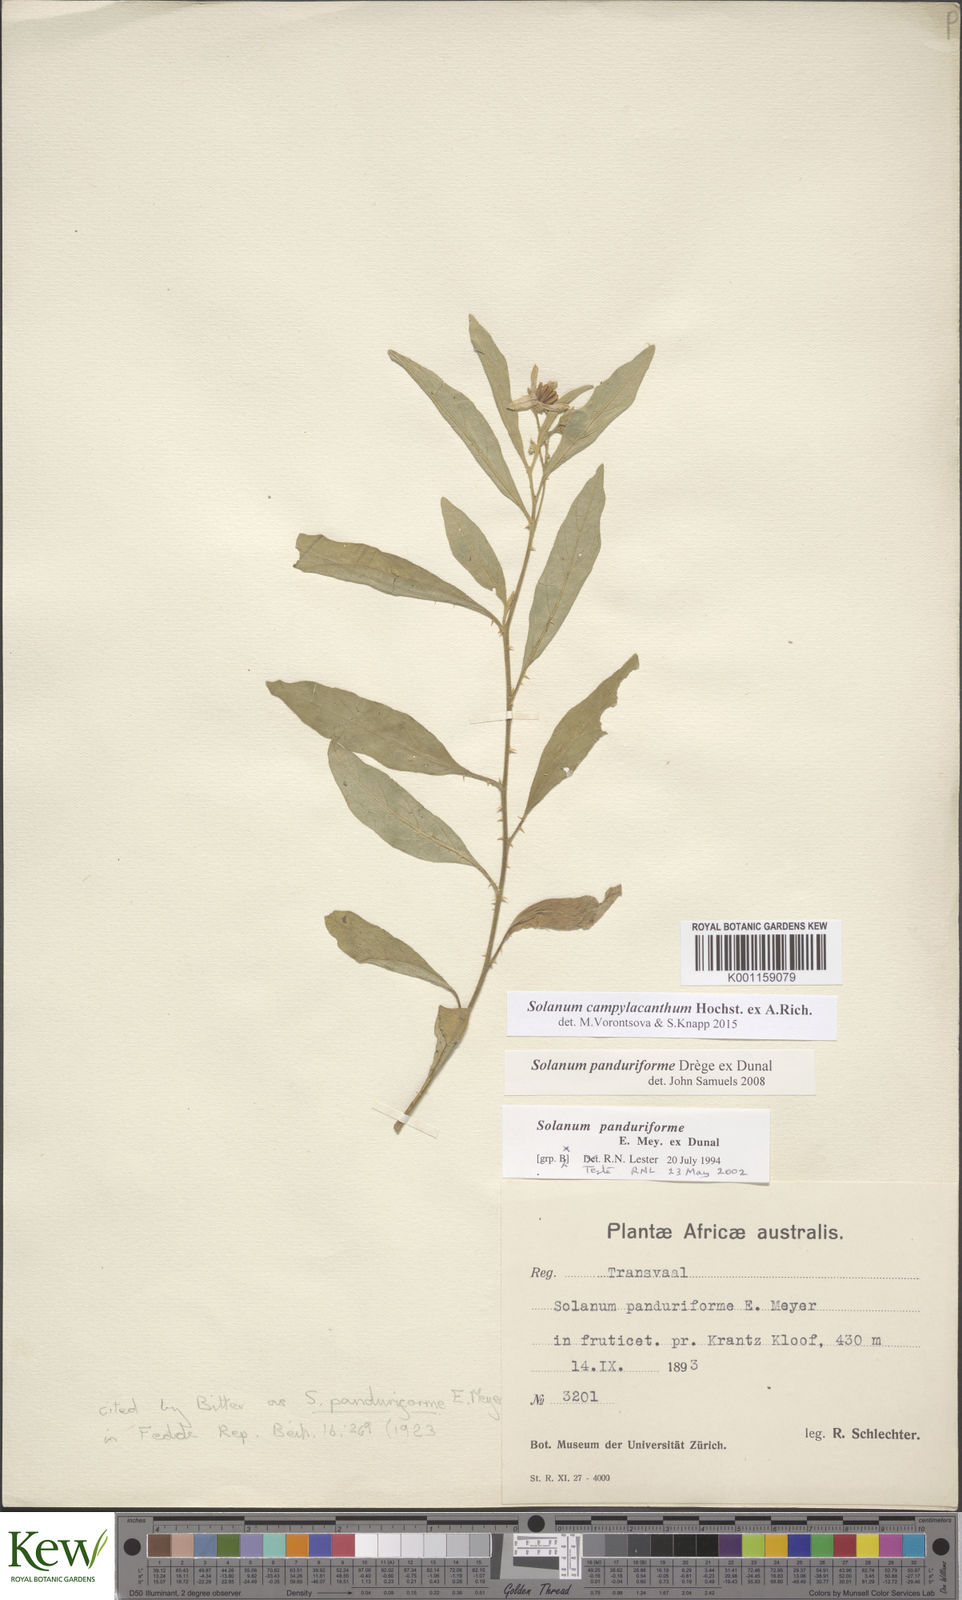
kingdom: Plantae
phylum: Tracheophyta
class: Magnoliopsida
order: Solanales
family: Solanaceae
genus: Solanum
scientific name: Solanum campylacanthum
